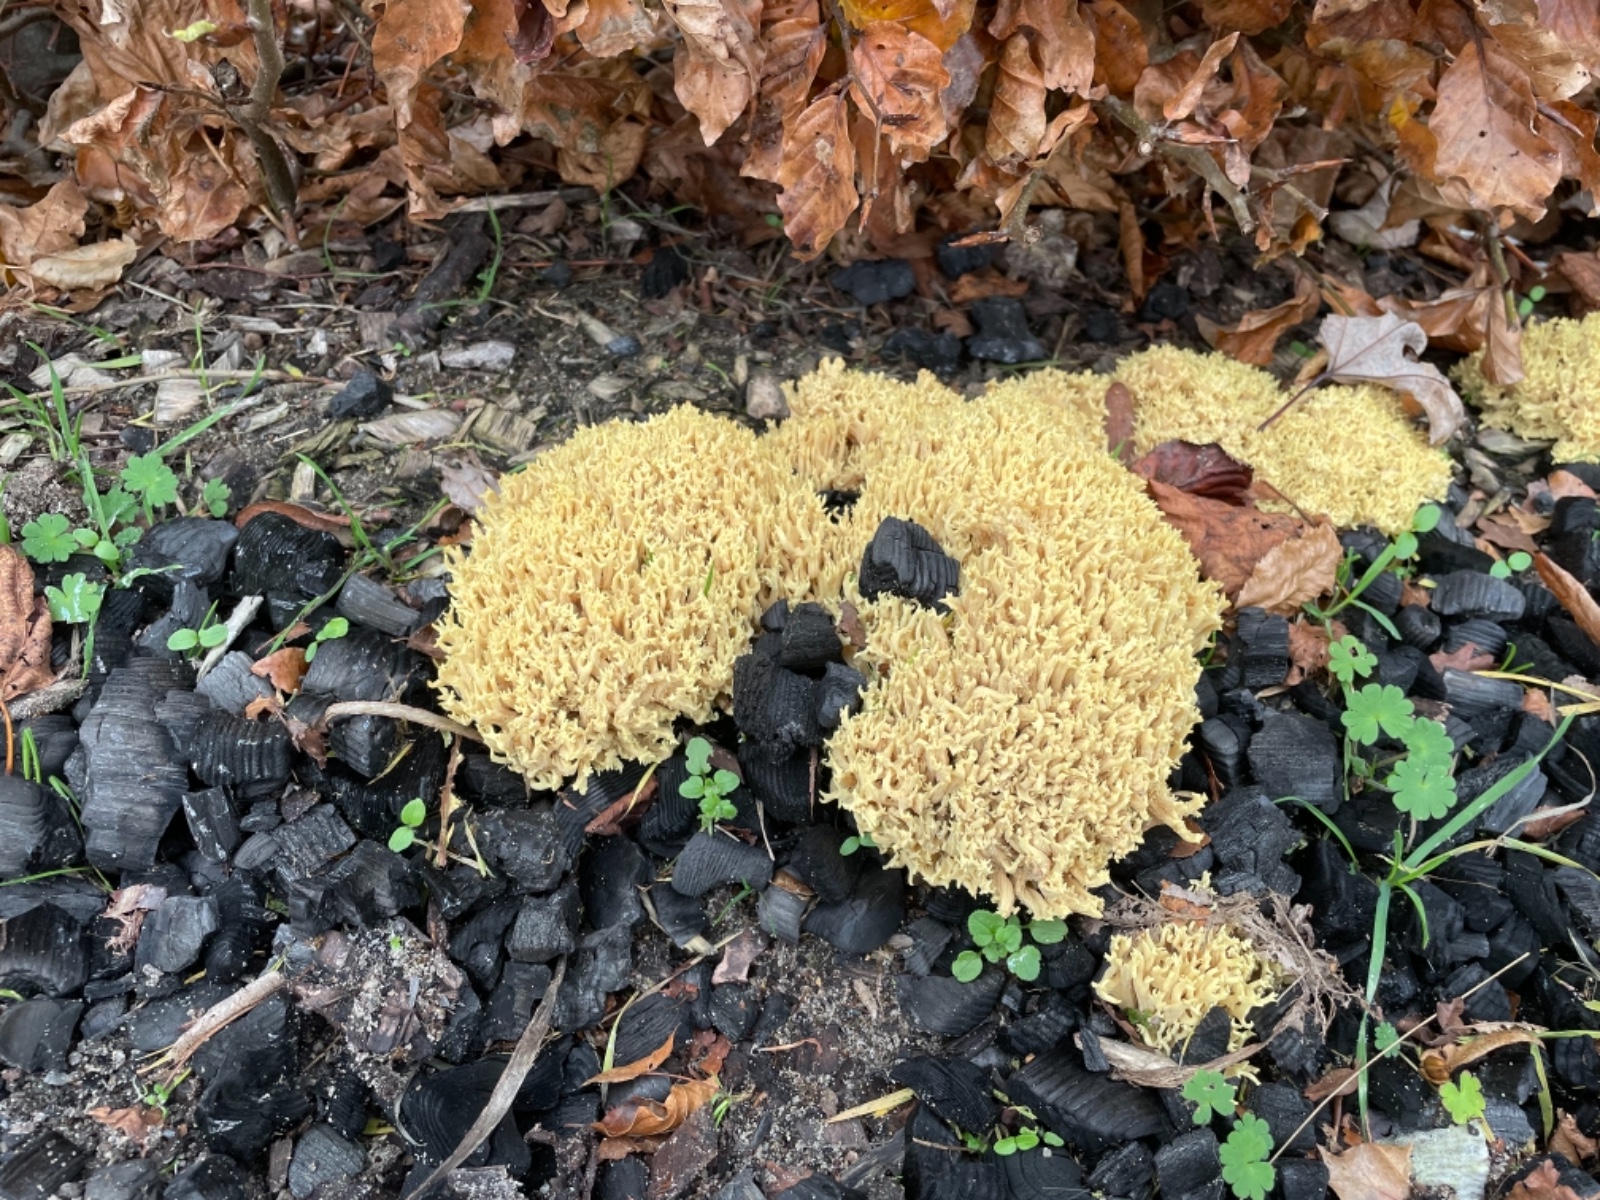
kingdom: Fungi
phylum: Basidiomycota
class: Agaricomycetes
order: Gomphales
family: Gomphaceae
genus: Ramaria
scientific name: Ramaria stricta
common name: rank koralsvamp
